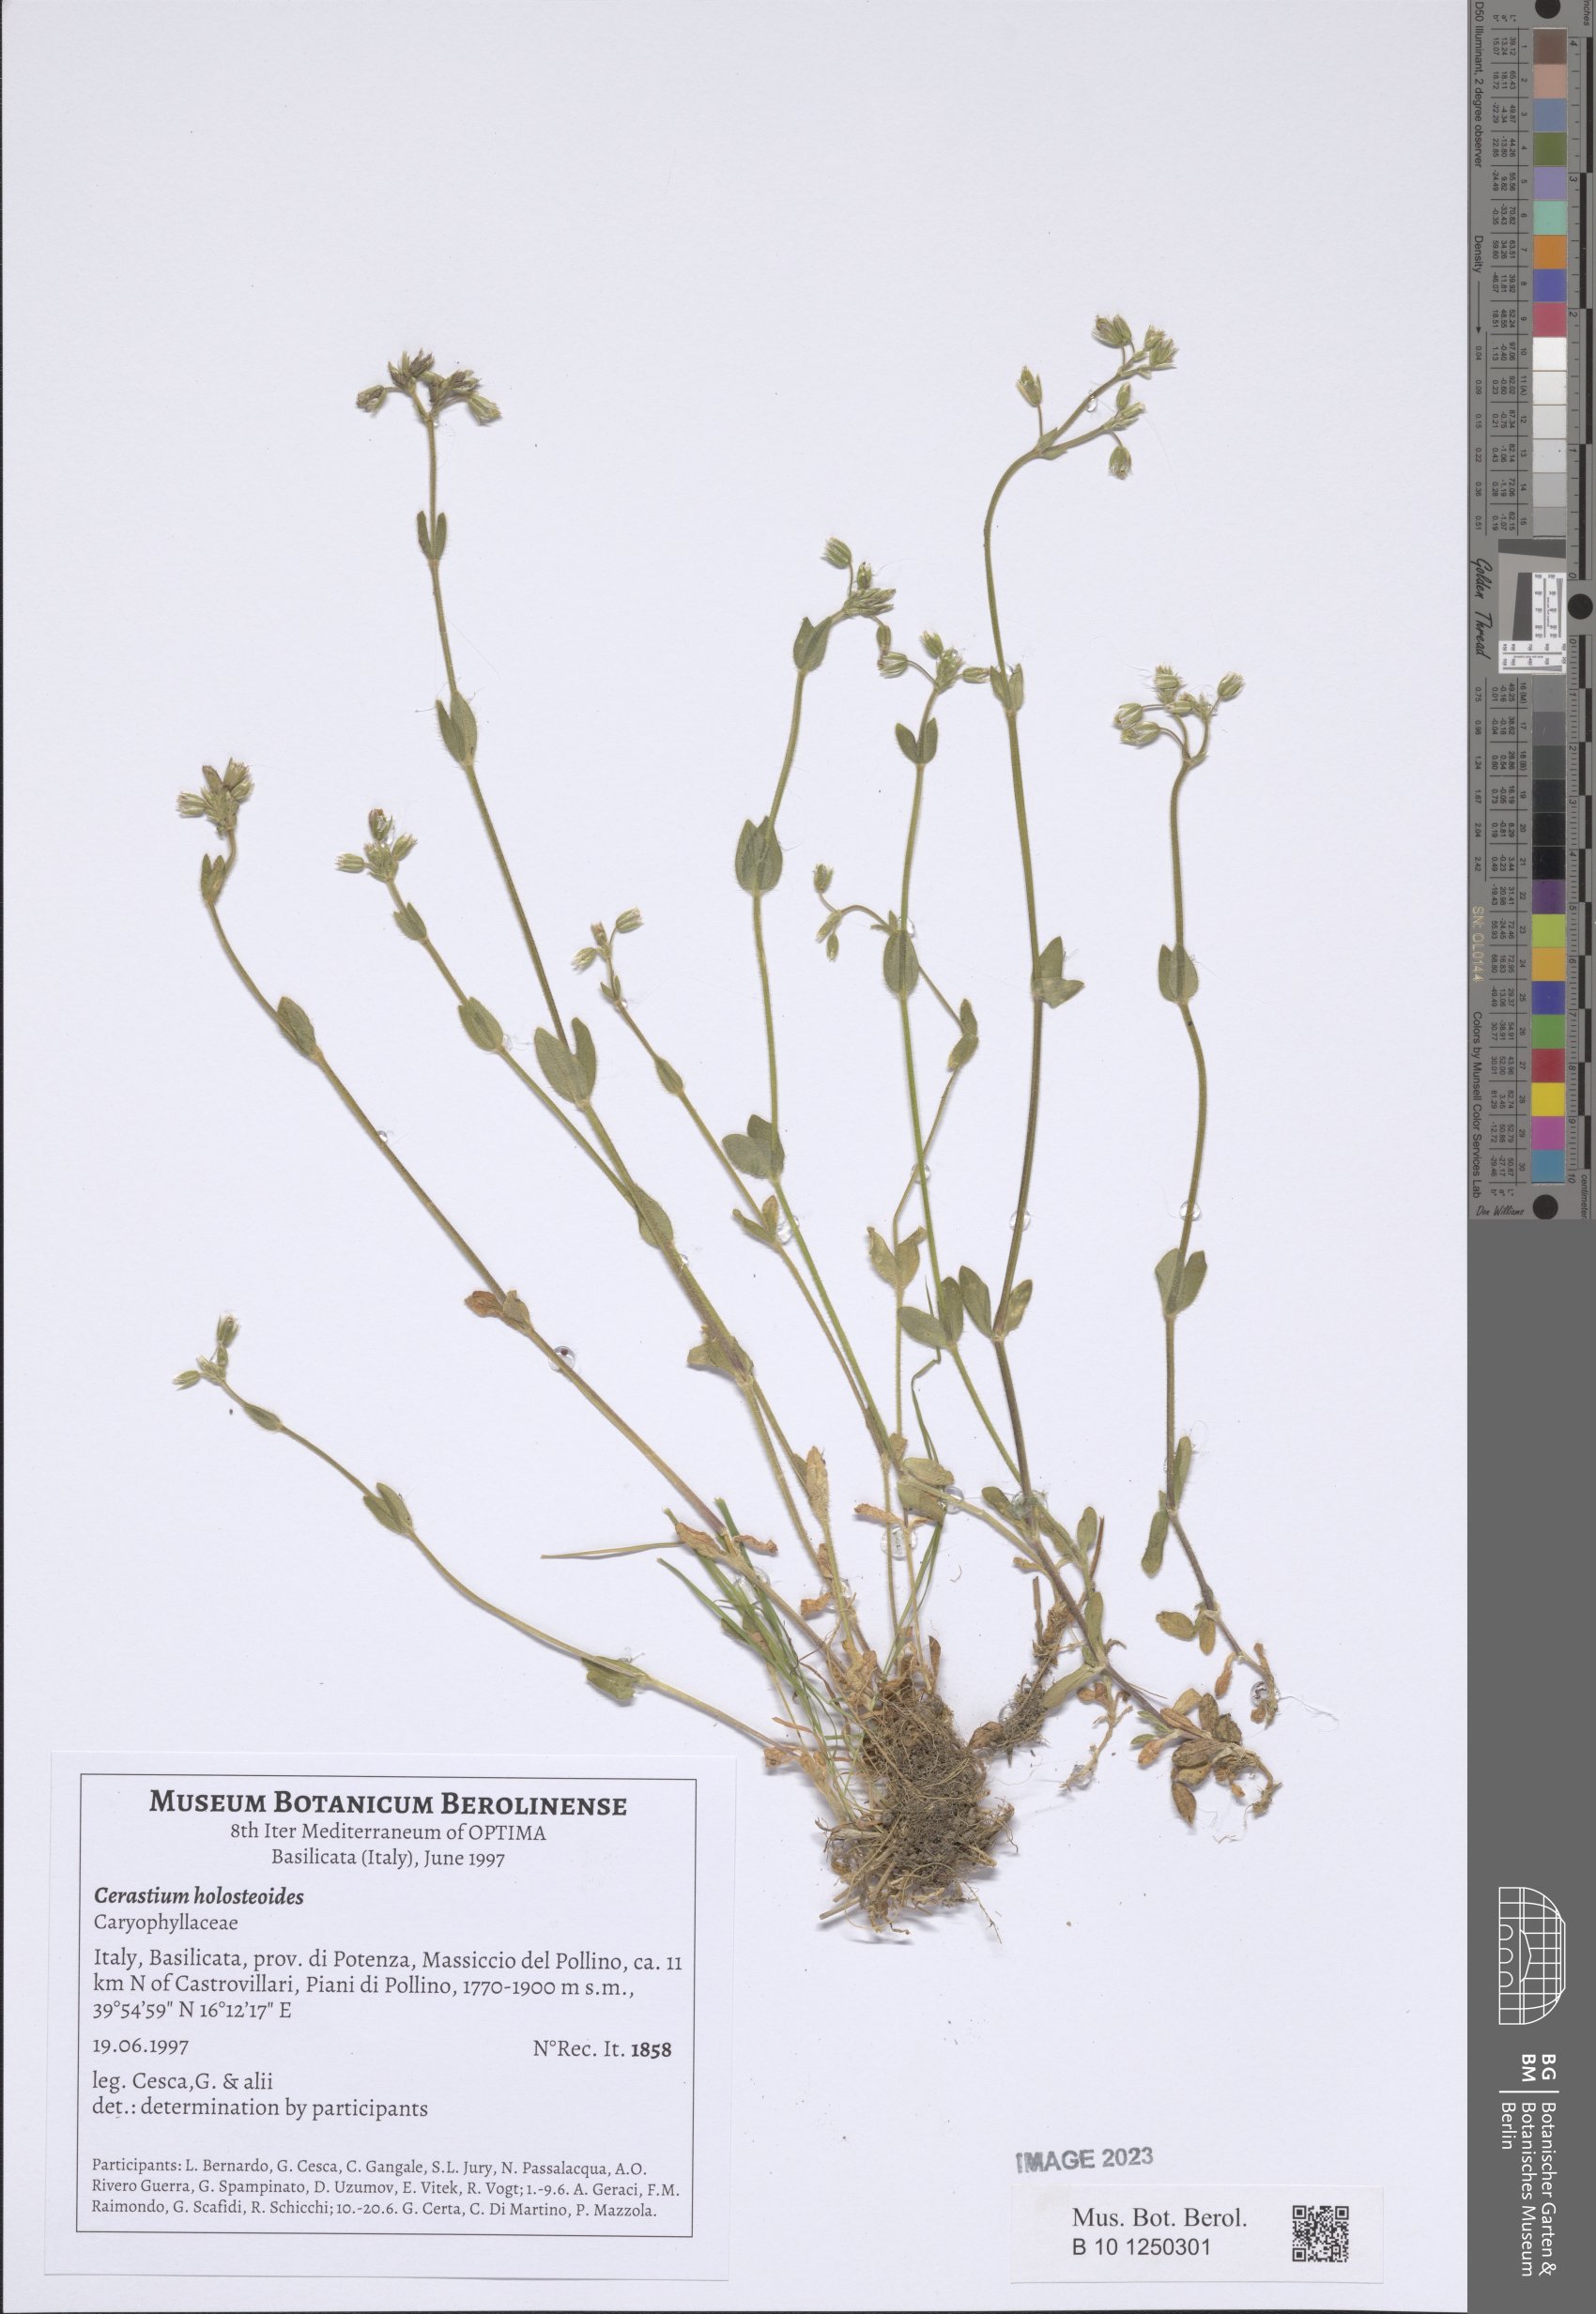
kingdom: Plantae
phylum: Tracheophyta
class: Magnoliopsida
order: Caryophyllales
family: Caryophyllaceae
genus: Cerastium
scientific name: Cerastium holosteoides
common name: Big chickweed
